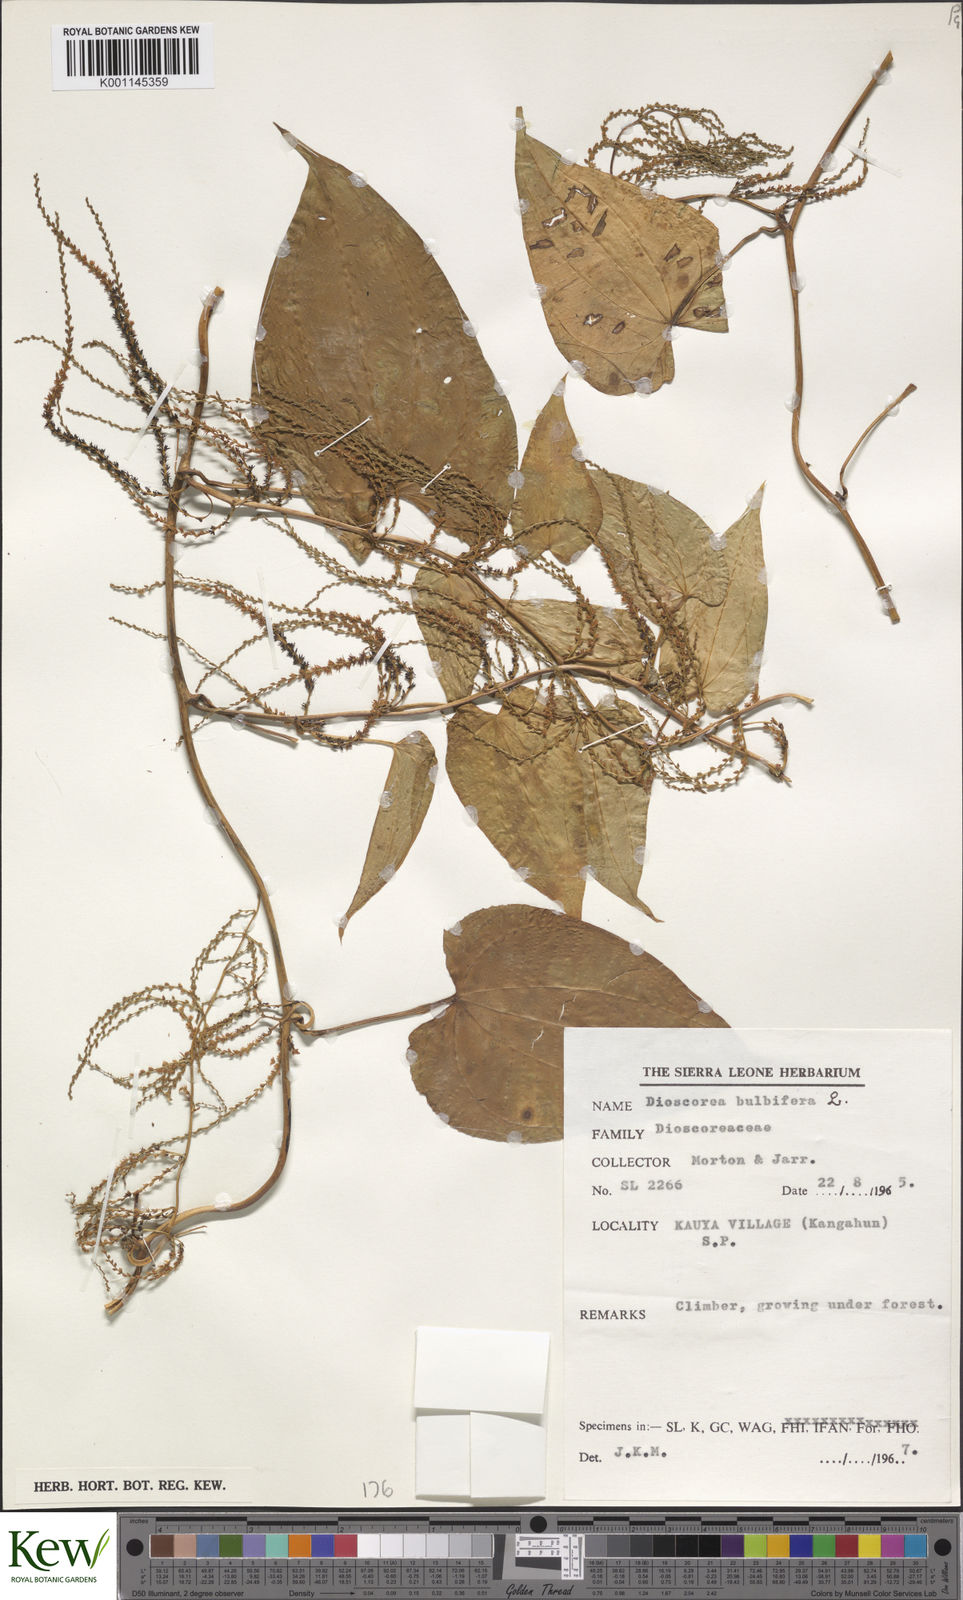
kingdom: Plantae
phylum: Tracheophyta
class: Liliopsida
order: Dioscoreales
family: Dioscoreaceae
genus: Dioscorea
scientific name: Dioscorea bulbifera
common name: Air yam
